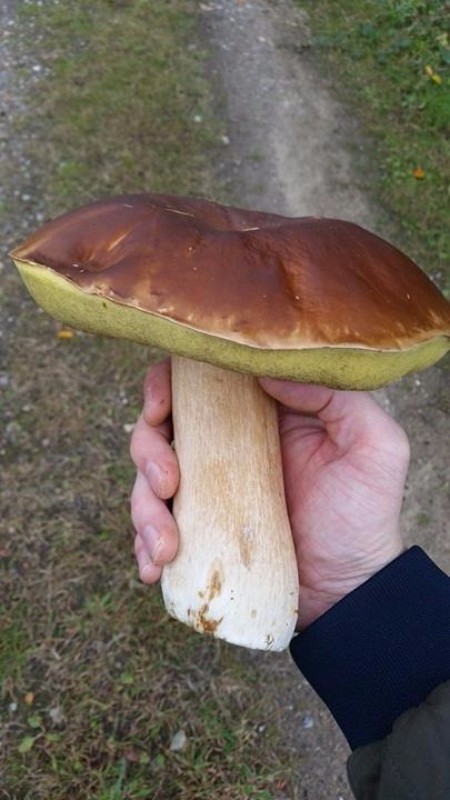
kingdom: Fungi
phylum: Basidiomycota
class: Agaricomycetes
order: Boletales
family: Boletaceae
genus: Boletus
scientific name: Boletus edulis
